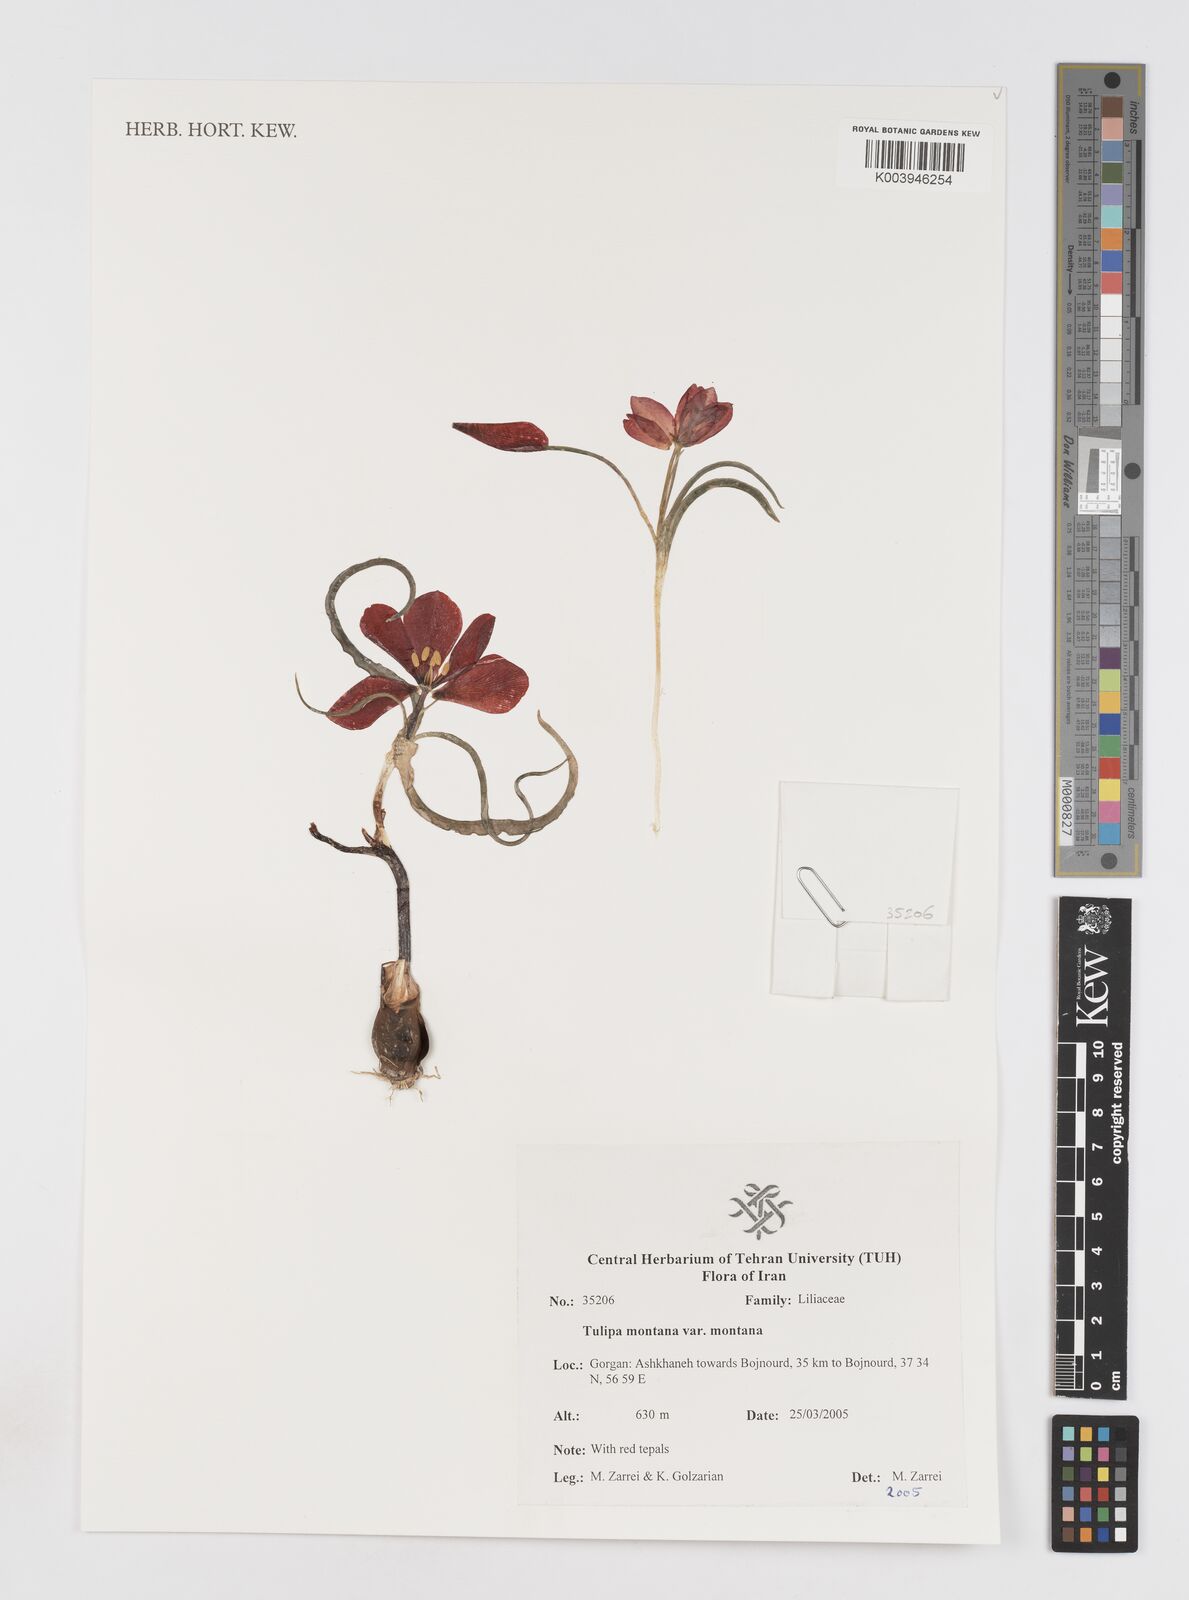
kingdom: Plantae
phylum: Tracheophyta
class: Liliopsida
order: Liliales
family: Liliaceae
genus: Tulipa
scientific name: Tulipa montana
